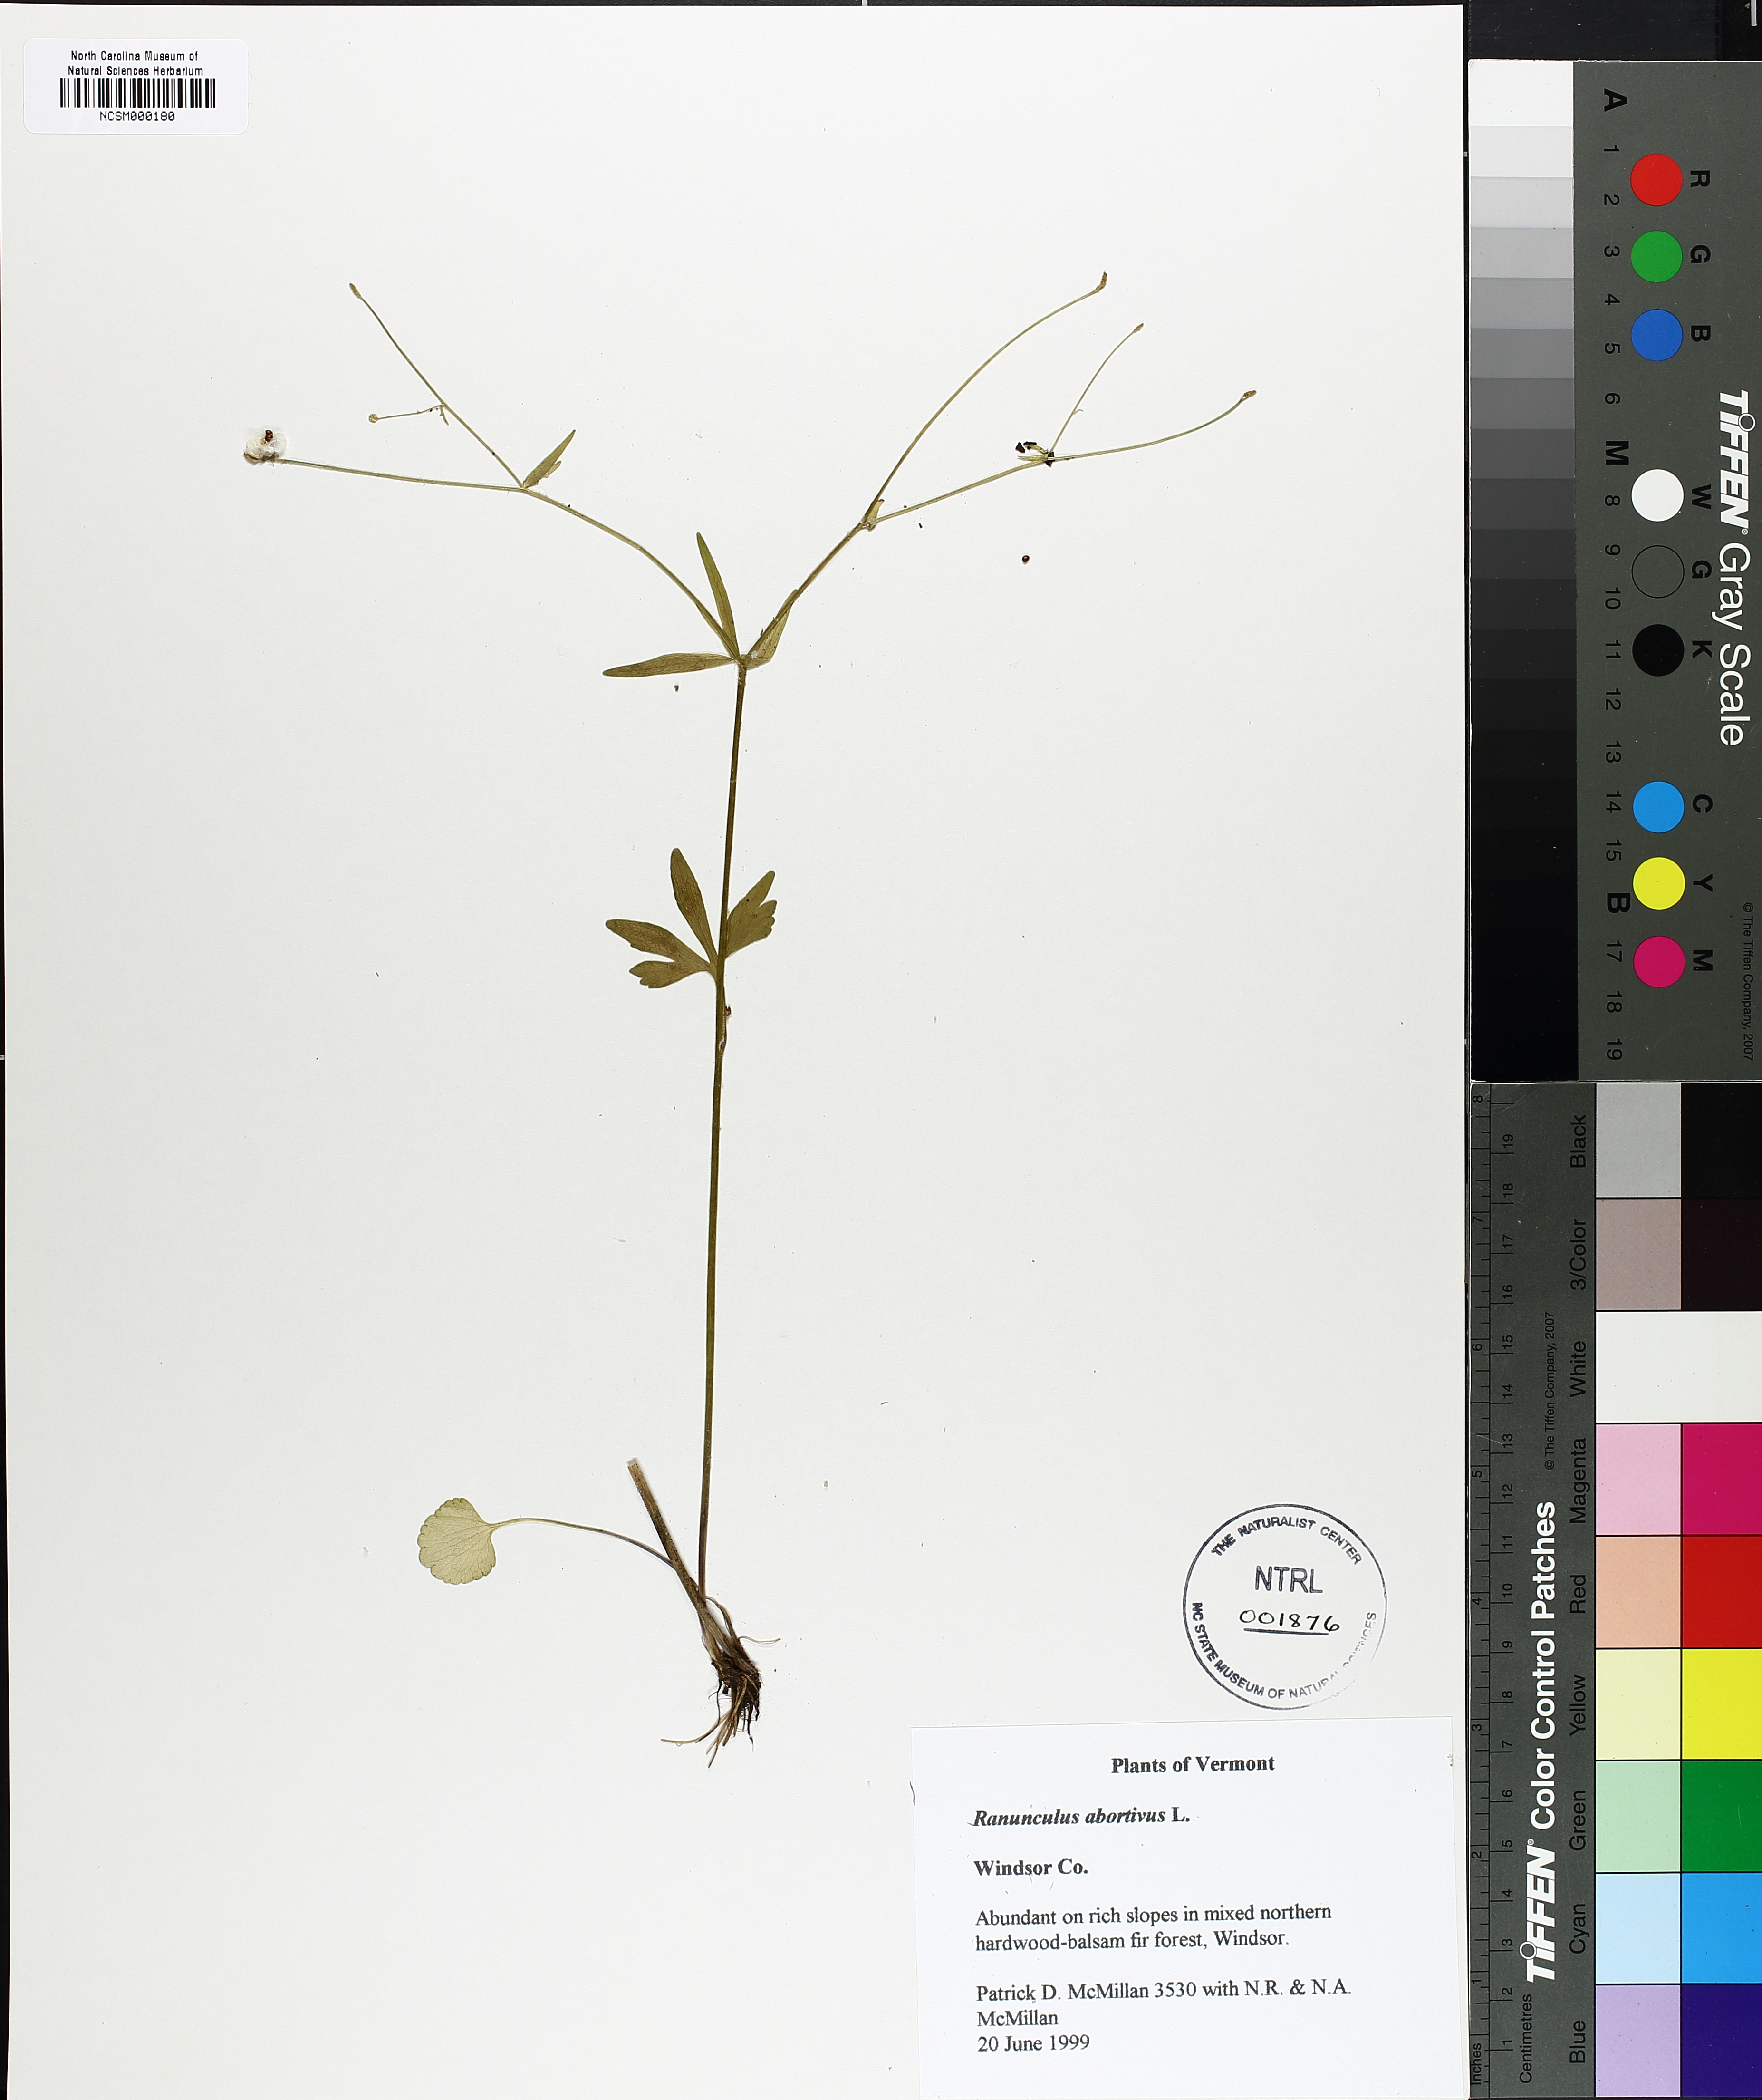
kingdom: Plantae
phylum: Tracheophyta
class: Magnoliopsida
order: Ranunculales
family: Ranunculaceae
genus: Ranunculus
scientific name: Ranunculus abortivus
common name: Early wood buttercup
